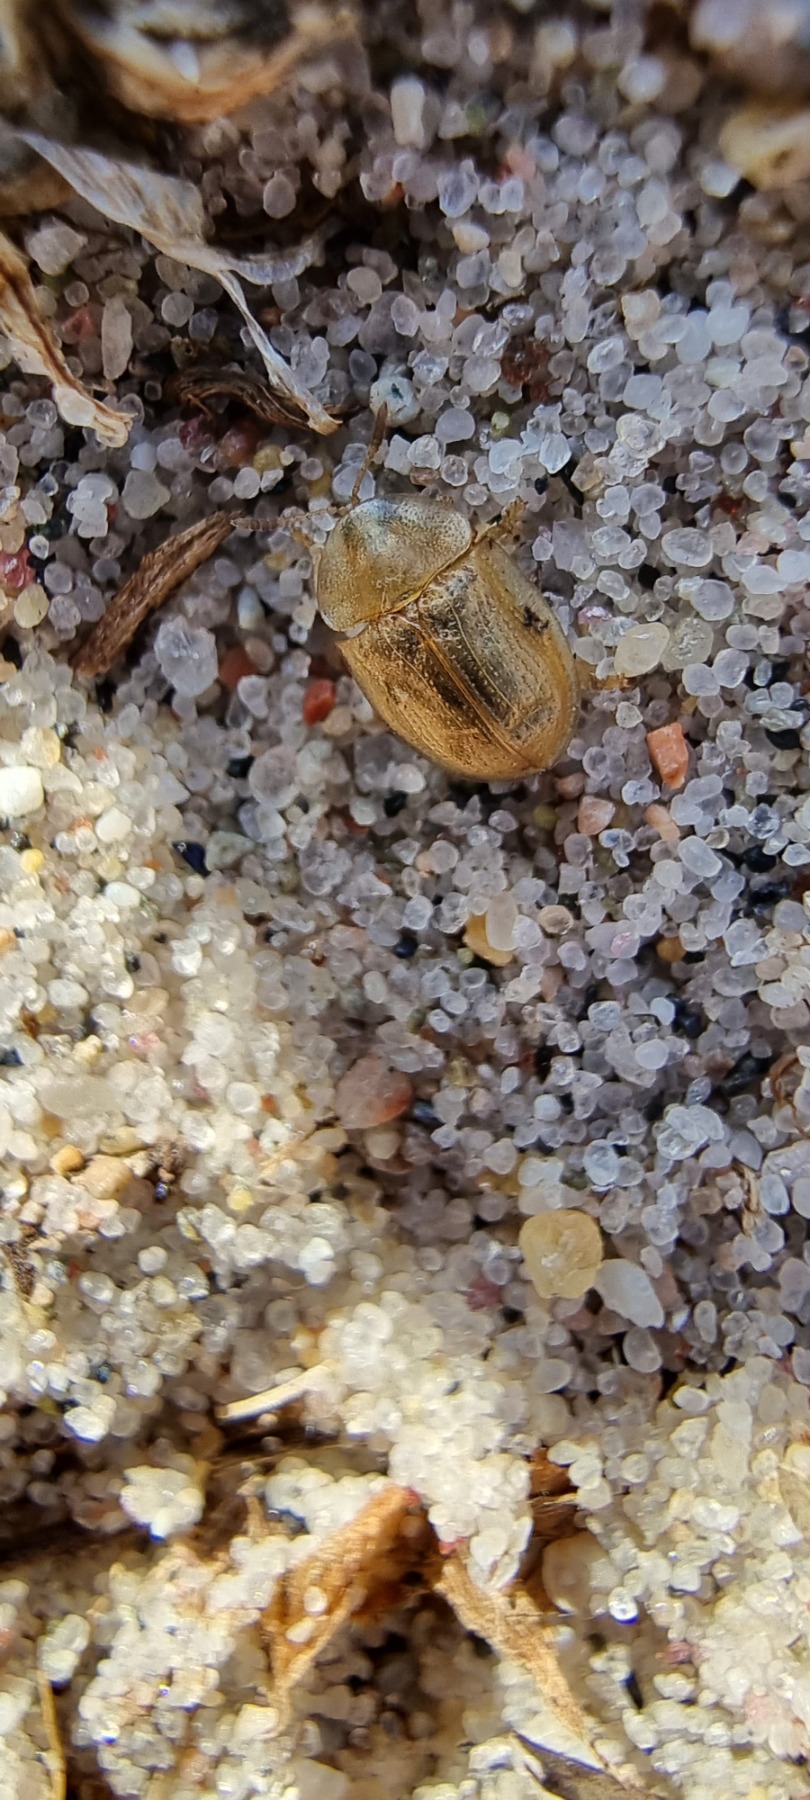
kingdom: Animalia
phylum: Arthropoda
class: Insecta
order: Coleoptera
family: Chrysomelidae
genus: Cassida
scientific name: Cassida flaveola
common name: Gulbrun skjoldbille
